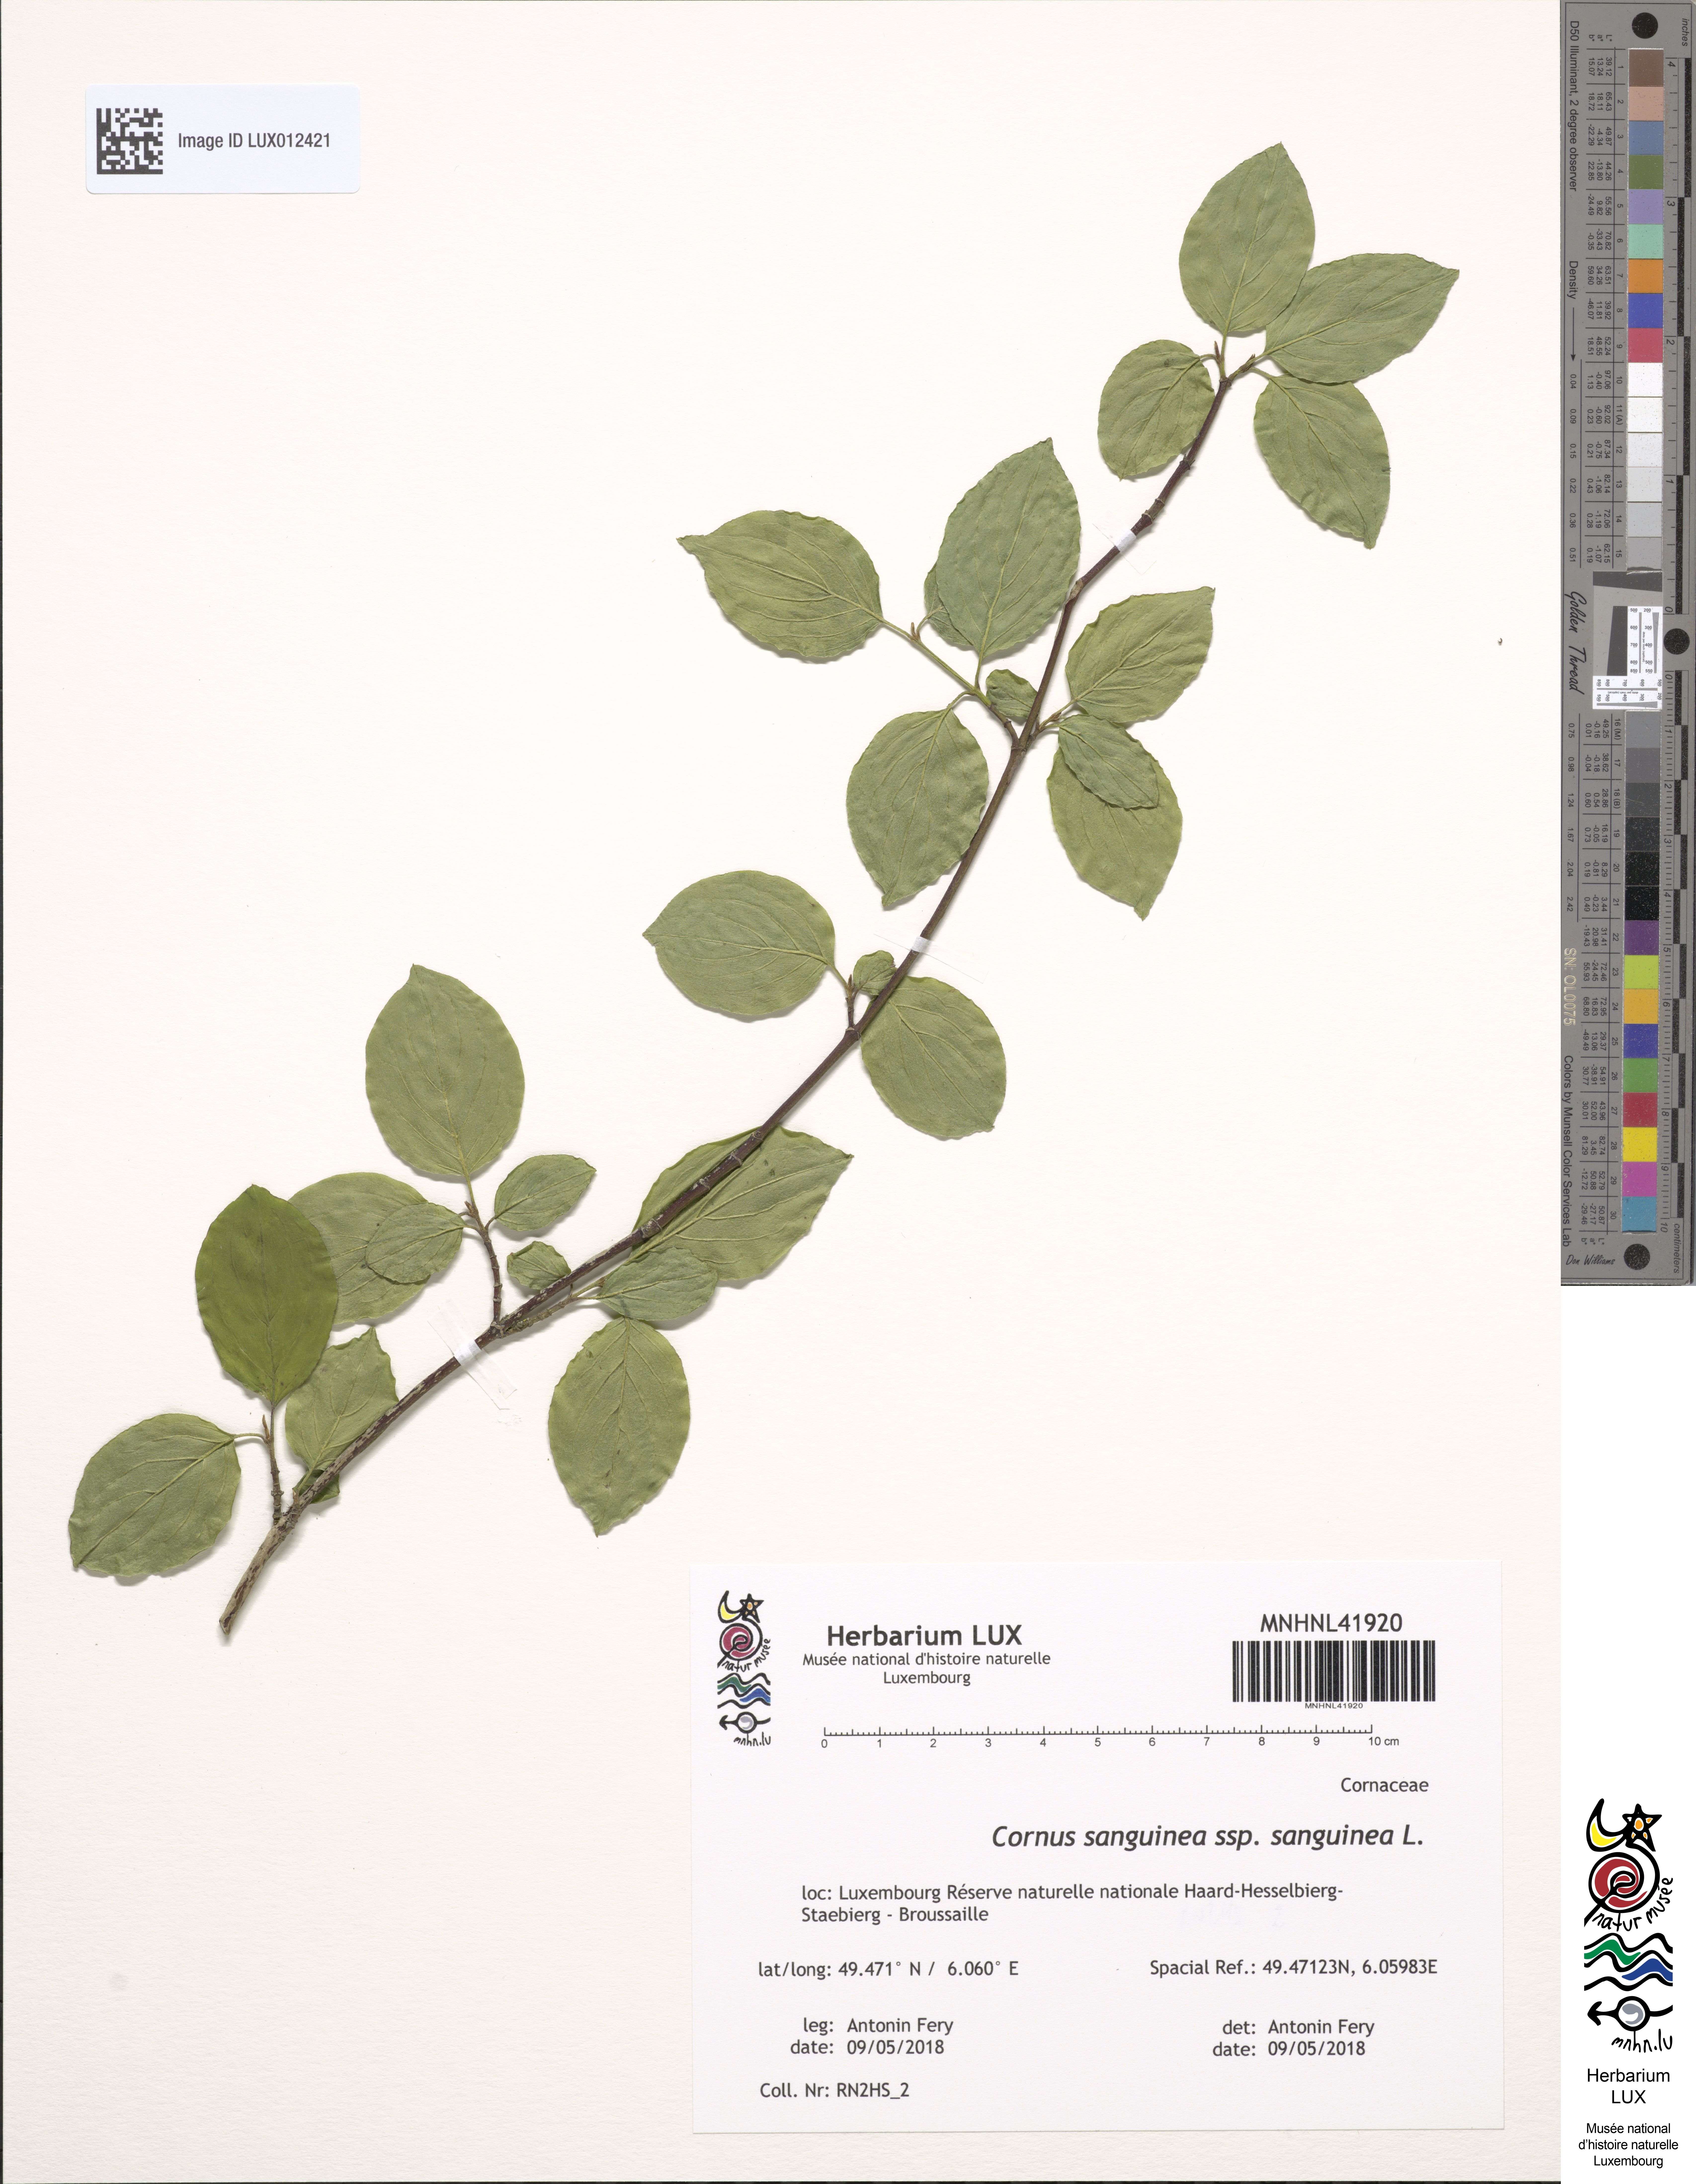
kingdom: Plantae
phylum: Tracheophyta
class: Magnoliopsida
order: Cornales
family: Cornaceae
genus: Cornus
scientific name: Cornus sanguinea
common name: Dogwood
